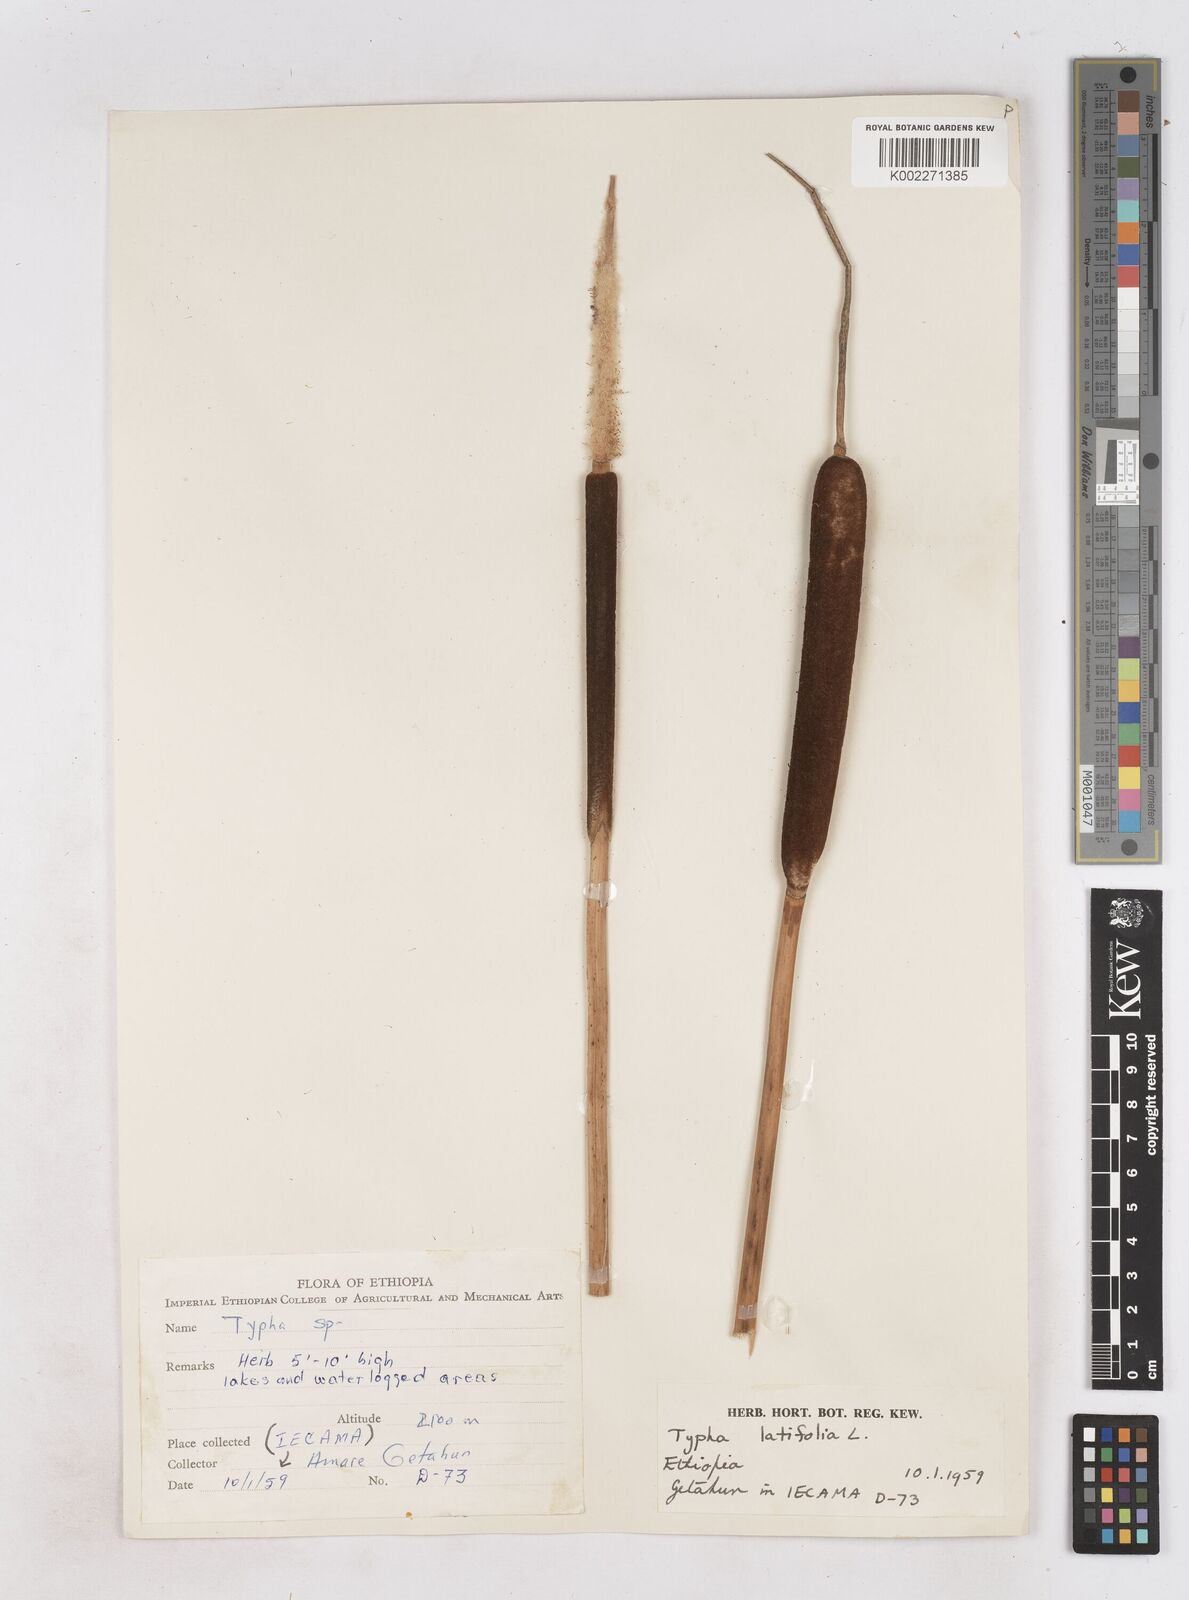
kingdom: Plantae
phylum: Tracheophyta
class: Liliopsida
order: Poales
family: Typhaceae
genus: Typha
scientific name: Typha latifolia
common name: Broadleaf cattail
